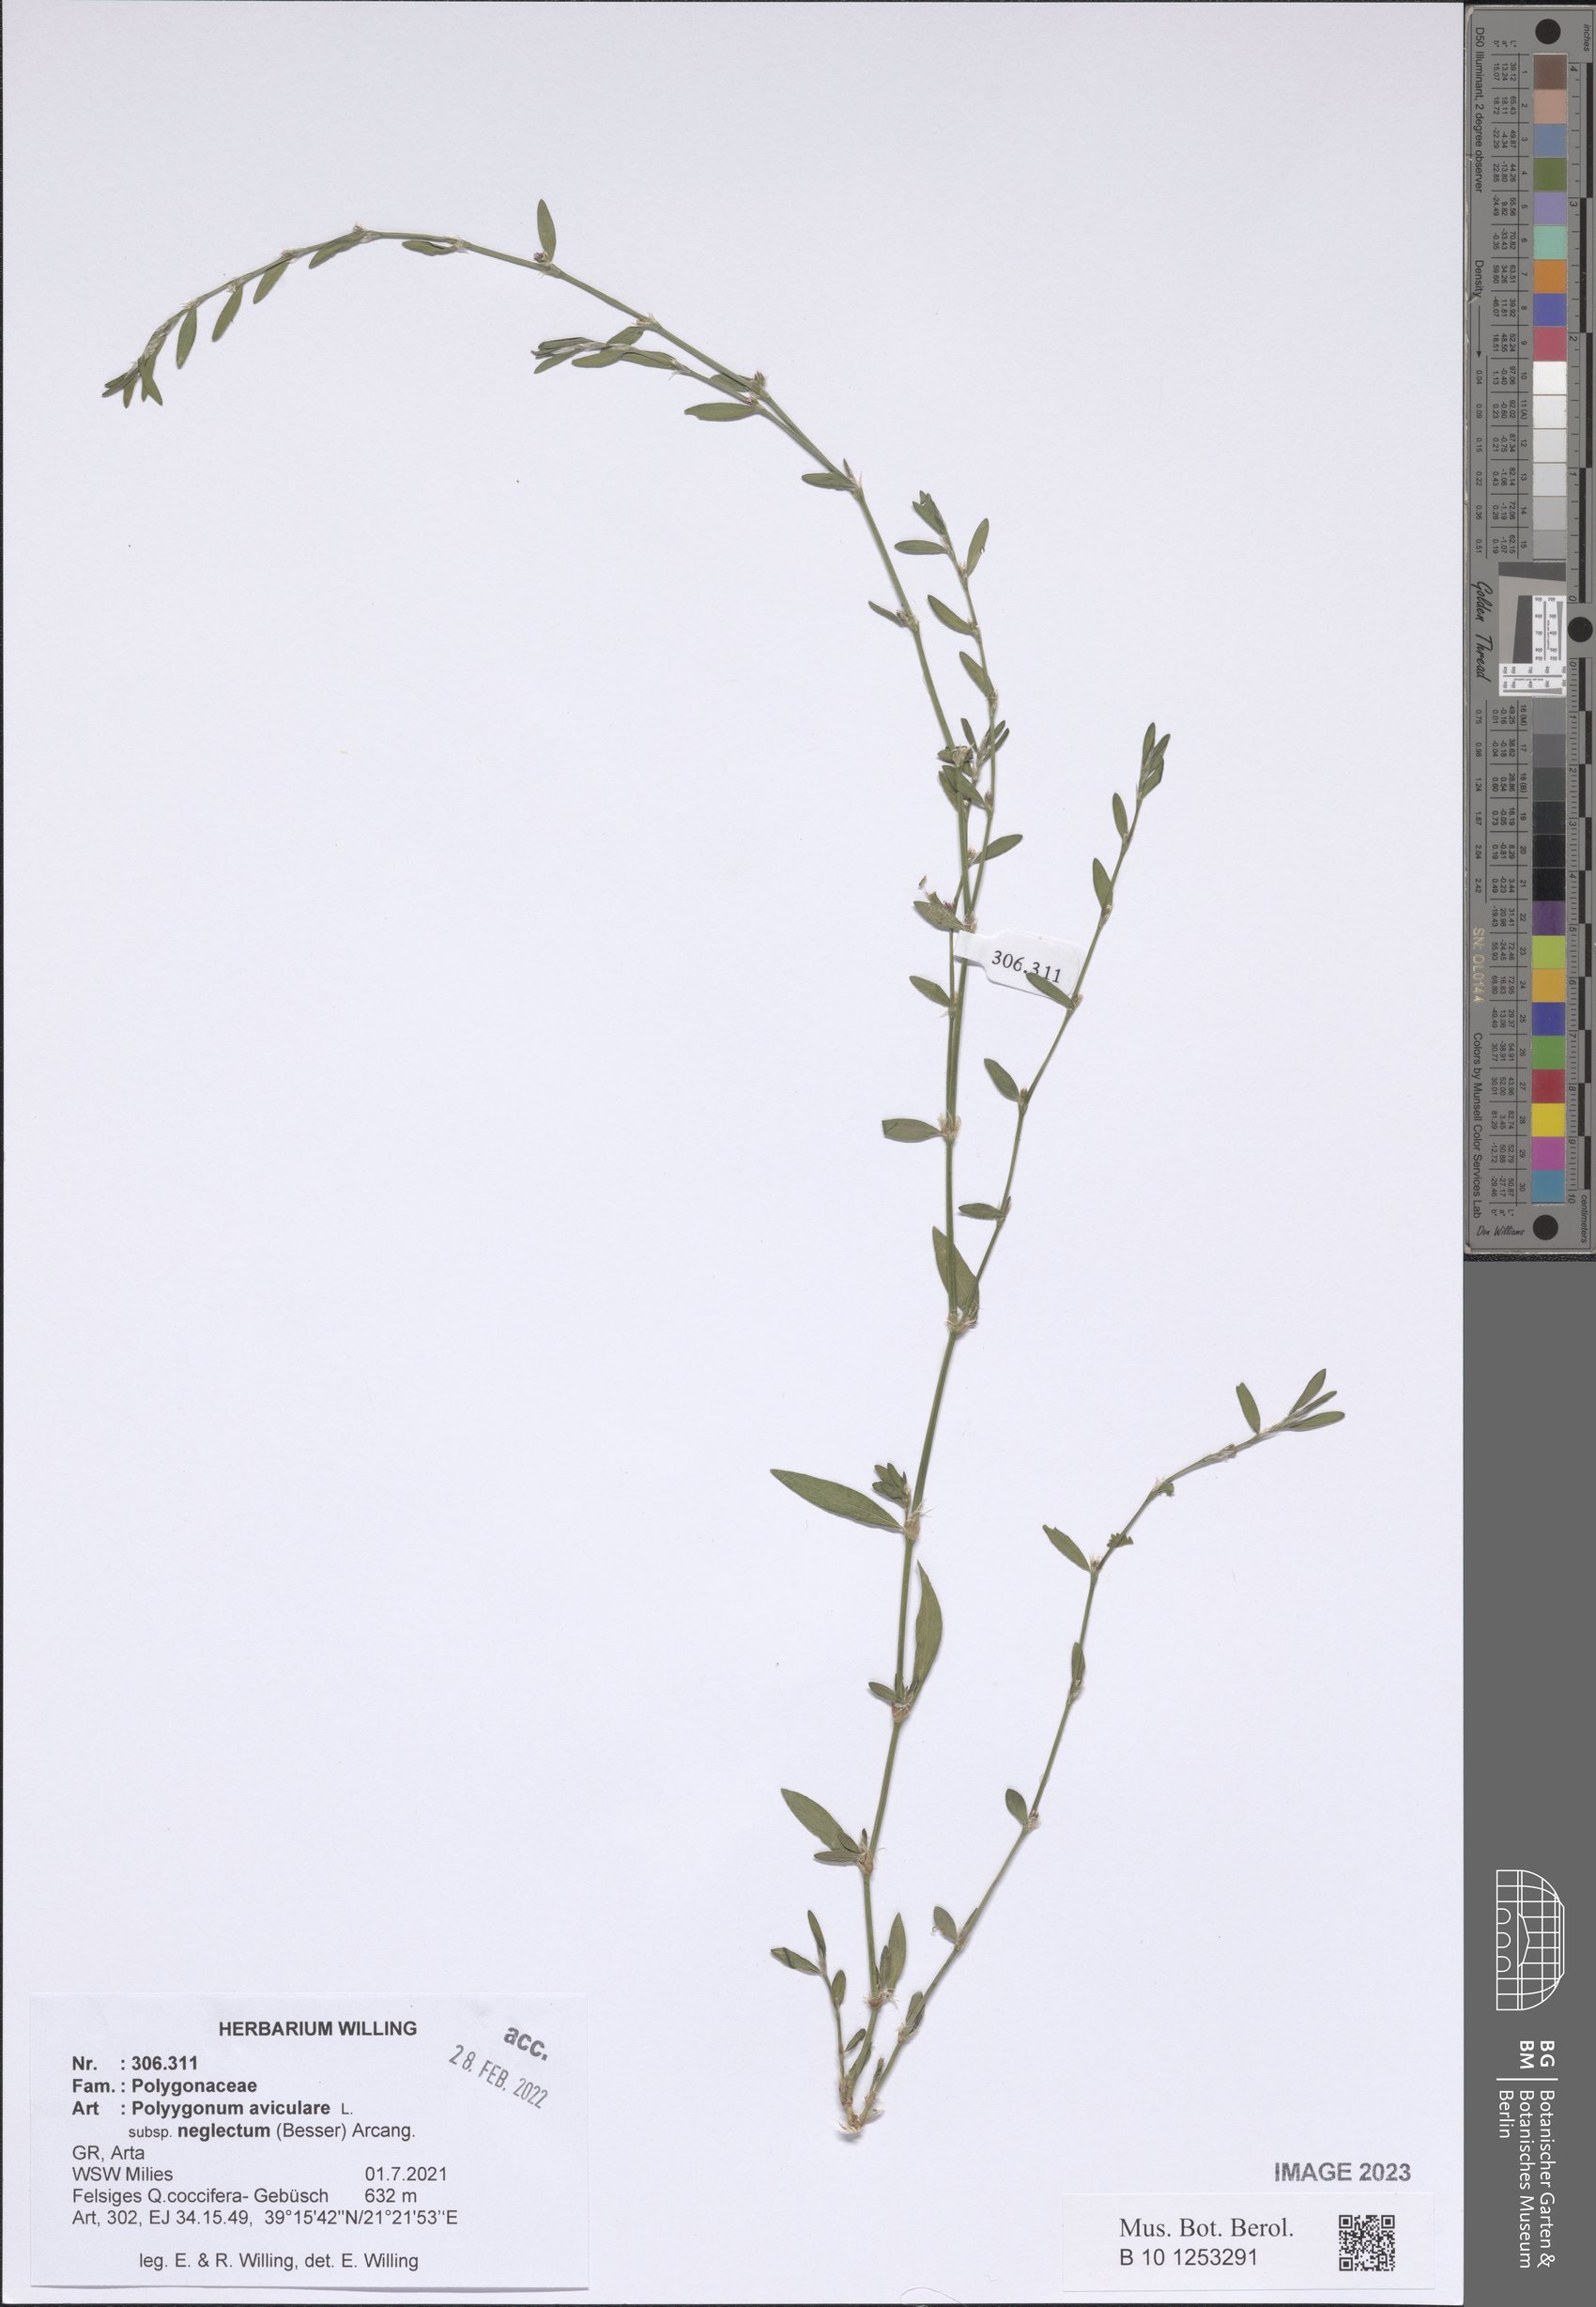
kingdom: Plantae
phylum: Tracheophyta
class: Magnoliopsida
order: Caryophyllales
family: Polygonaceae
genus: Polygonum
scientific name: Polygonum aviculare
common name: Prostrate knotweed
